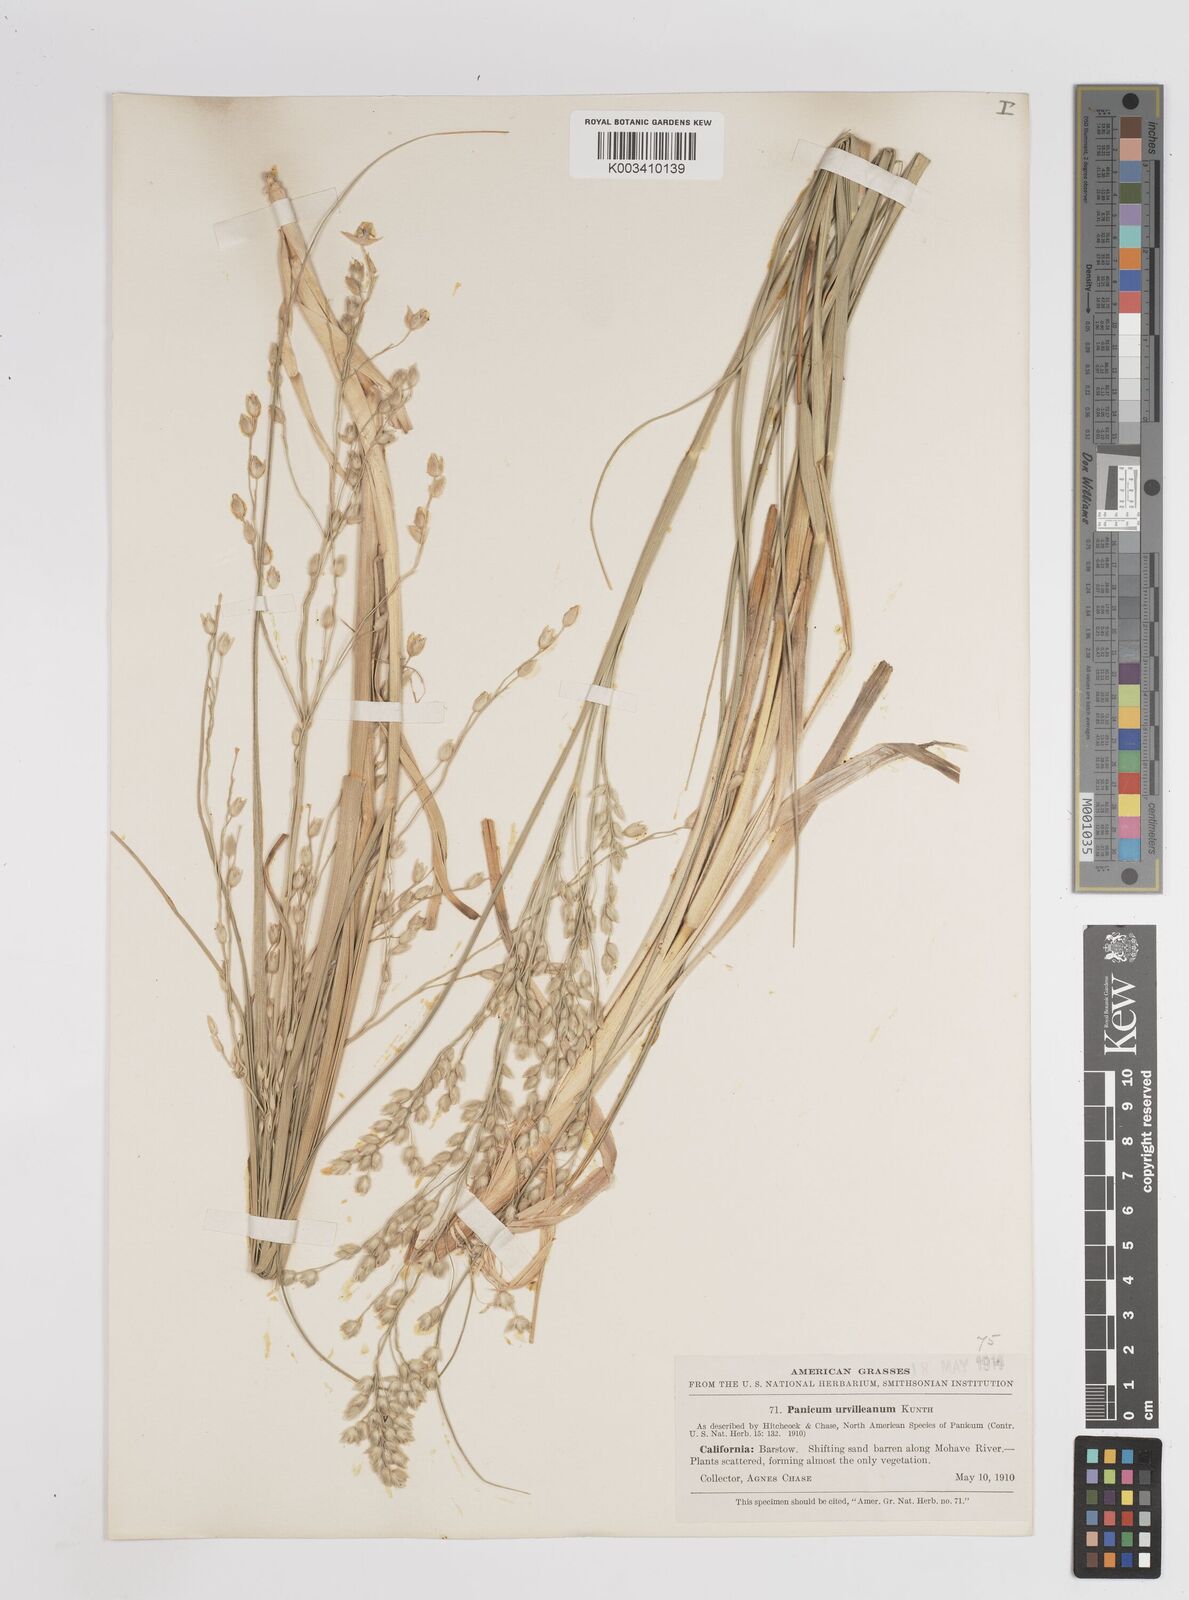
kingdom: Plantae
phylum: Tracheophyta
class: Liliopsida
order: Poales
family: Poaceae
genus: Panicum
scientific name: Panicum urvilleanum
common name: Silky panic grass
